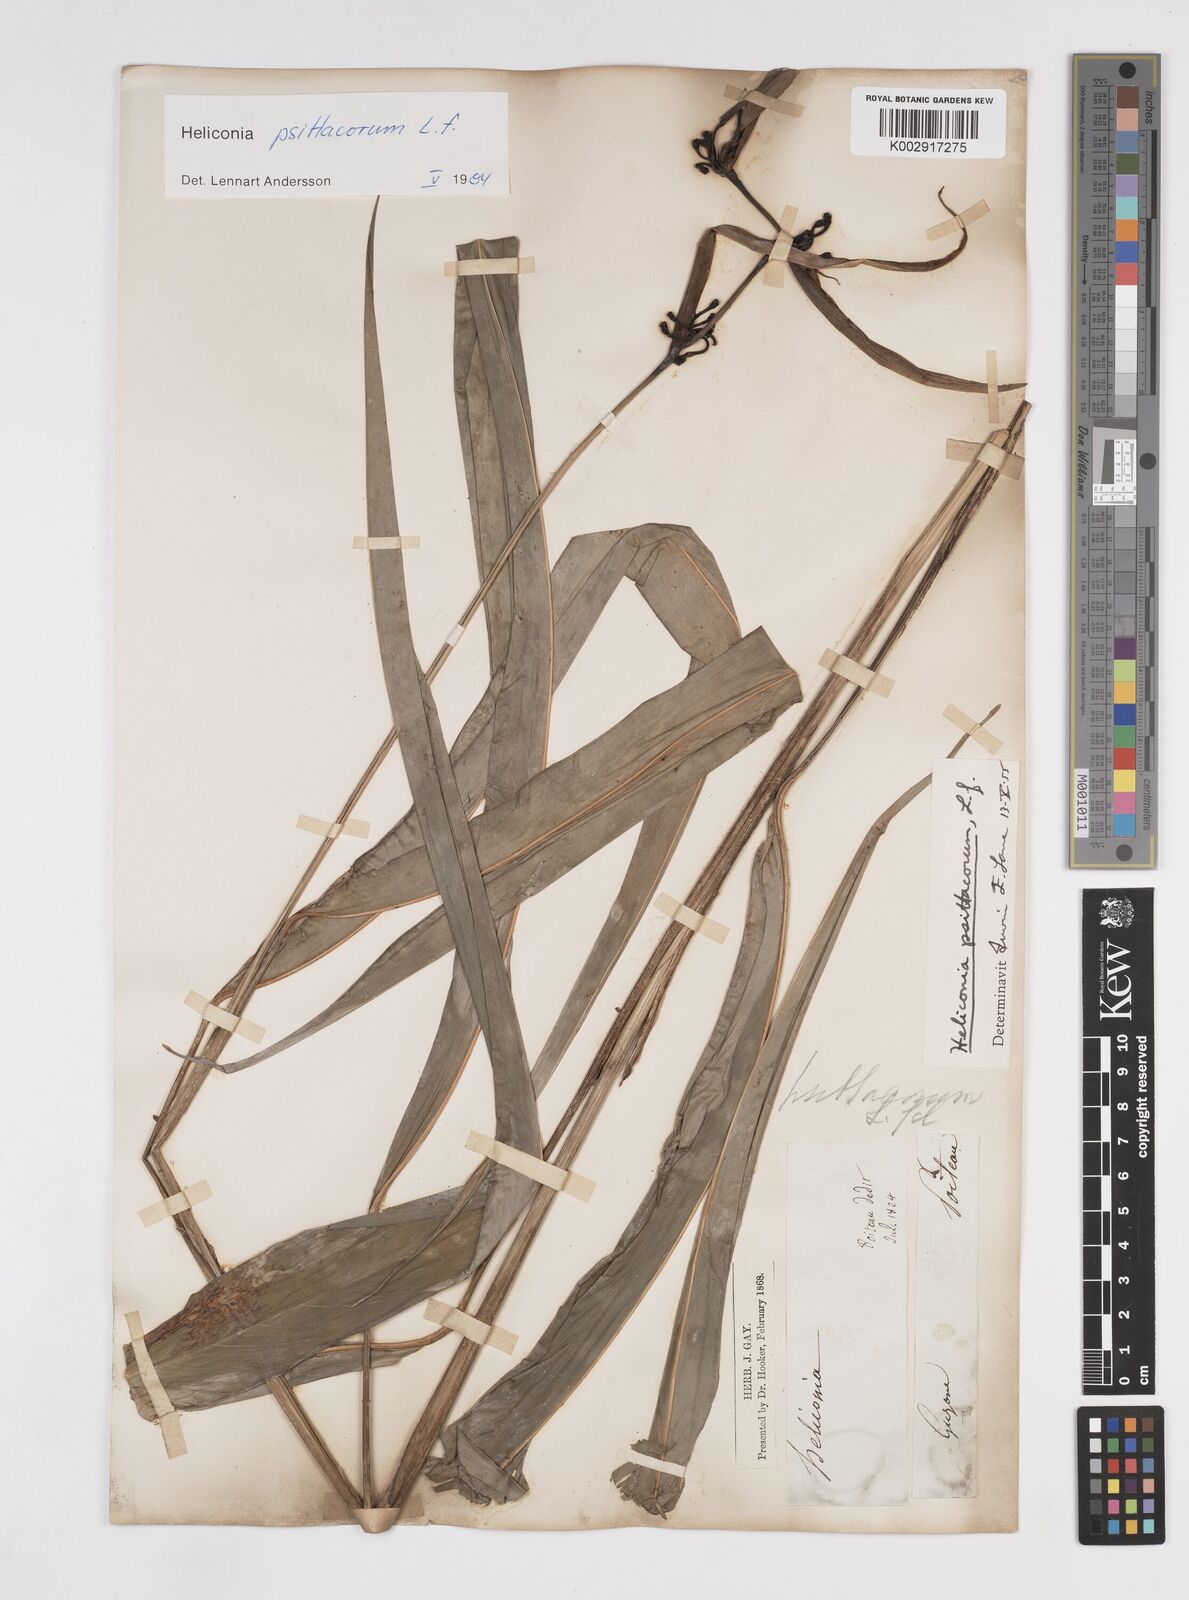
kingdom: Plantae
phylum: Tracheophyta
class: Liliopsida
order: Zingiberales
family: Heliconiaceae
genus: Heliconia
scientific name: Heliconia psittacorum
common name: Parrot's-flower
